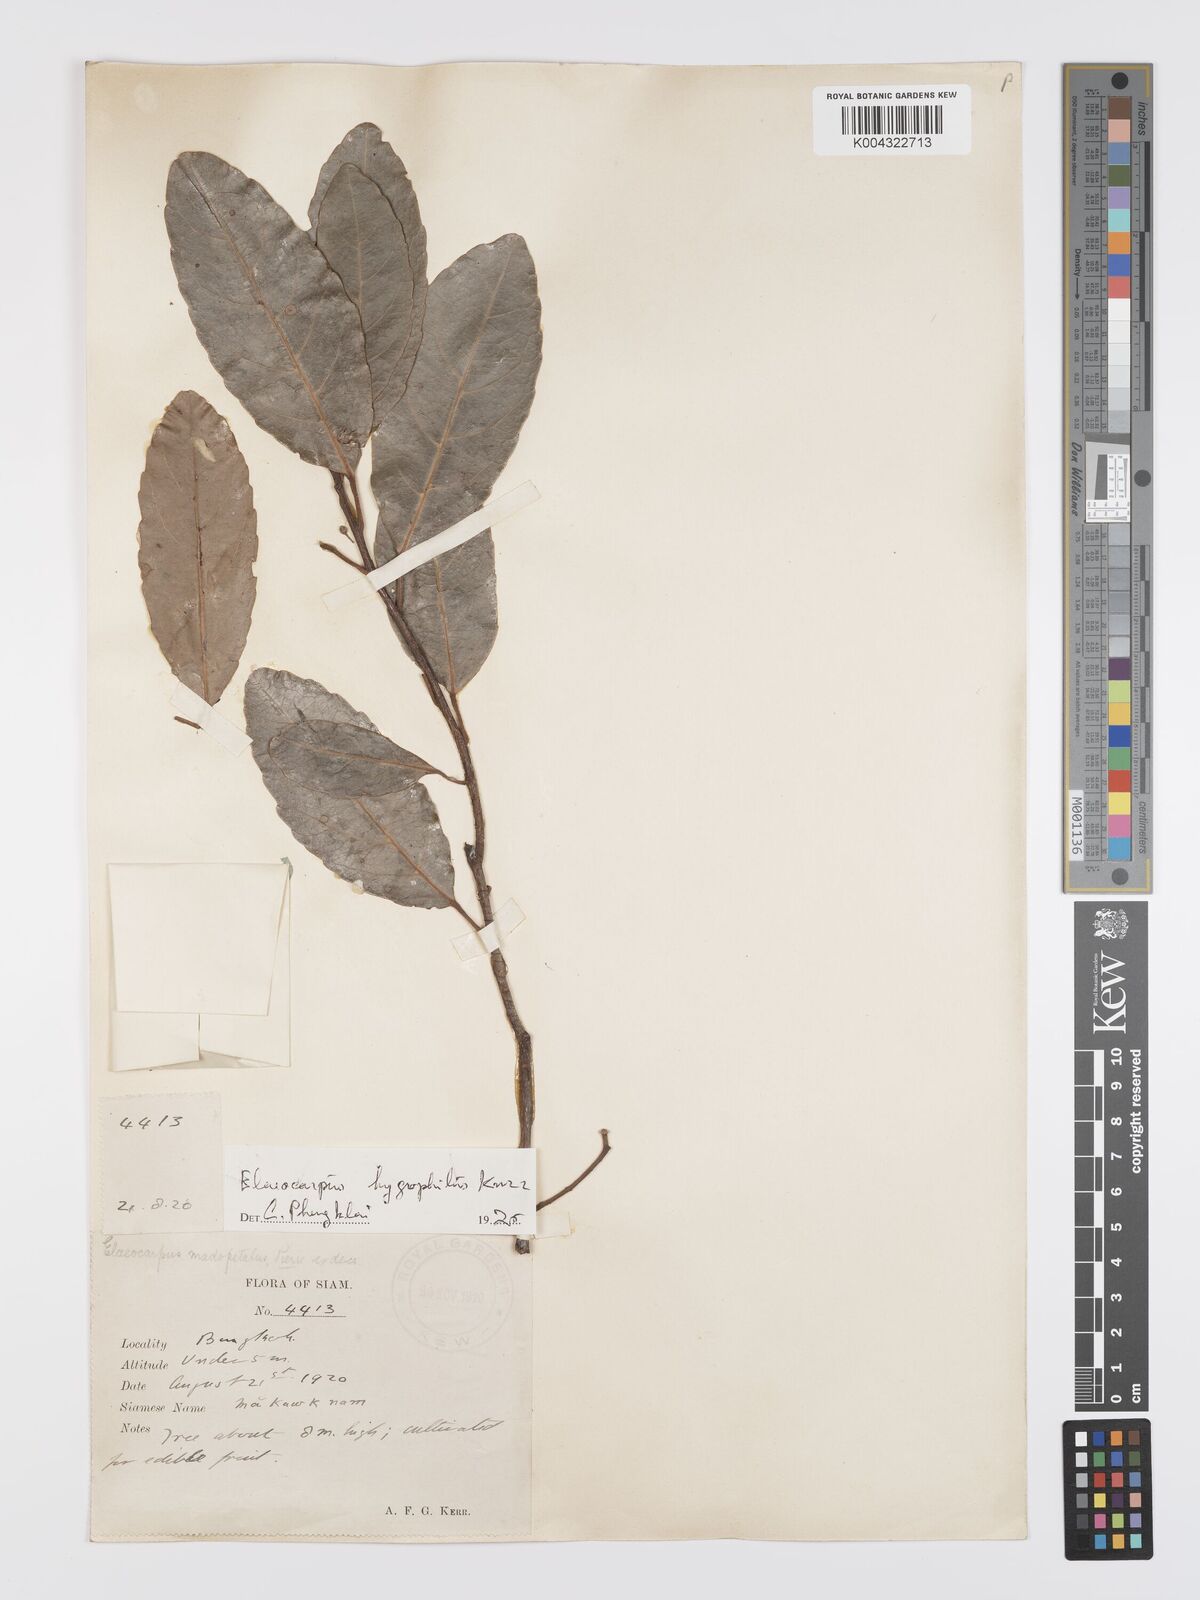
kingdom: Plantae
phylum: Tracheophyta
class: Magnoliopsida
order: Oxalidales
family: Elaeocarpaceae
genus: Elaeocarpus
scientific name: Elaeocarpus hygrophilus
